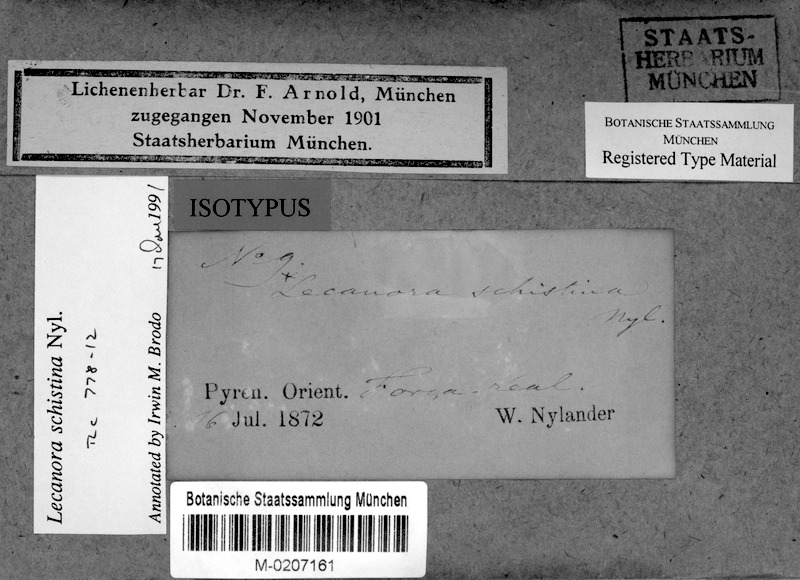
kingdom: Fungi
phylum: Ascomycota
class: Lecanoromycetes
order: Lecanorales
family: Lecanoraceae
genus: Lecanora
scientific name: Lecanora praepostera
